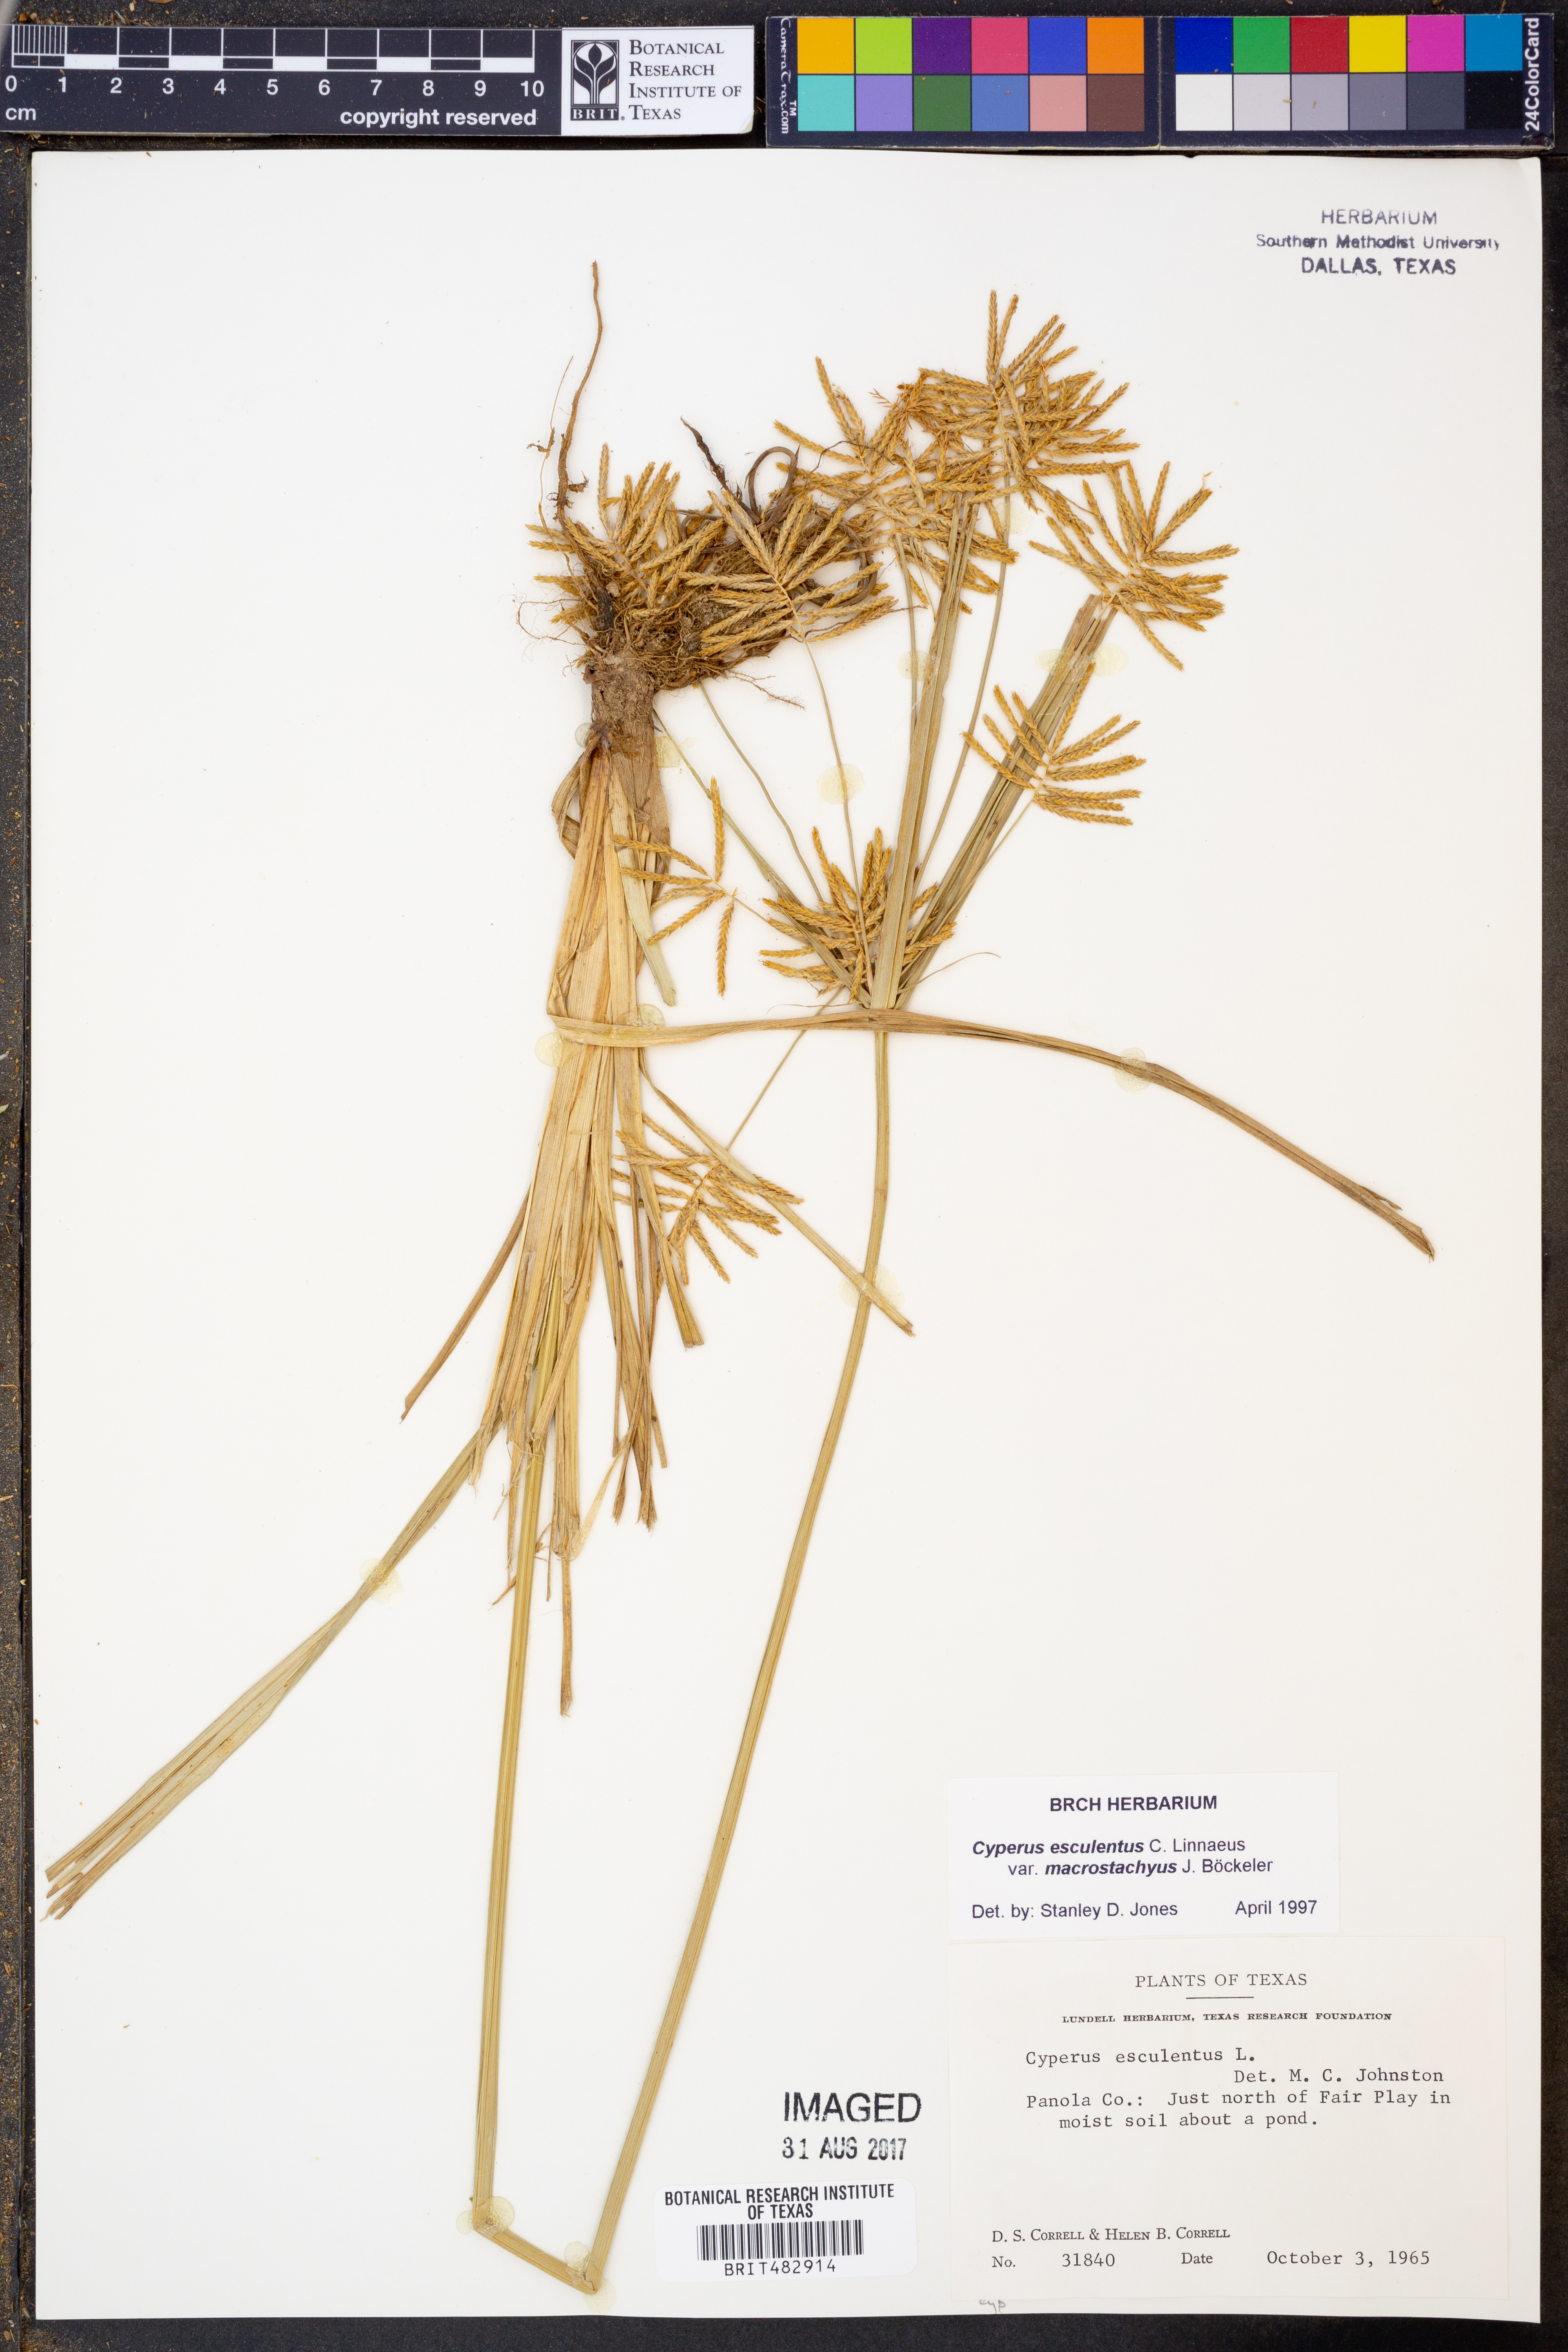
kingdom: Plantae
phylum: Tracheophyta
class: Liliopsida
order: Poales
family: Cyperaceae
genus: Cyperus
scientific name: Cyperus esculentus
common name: Yellow nutsedge
